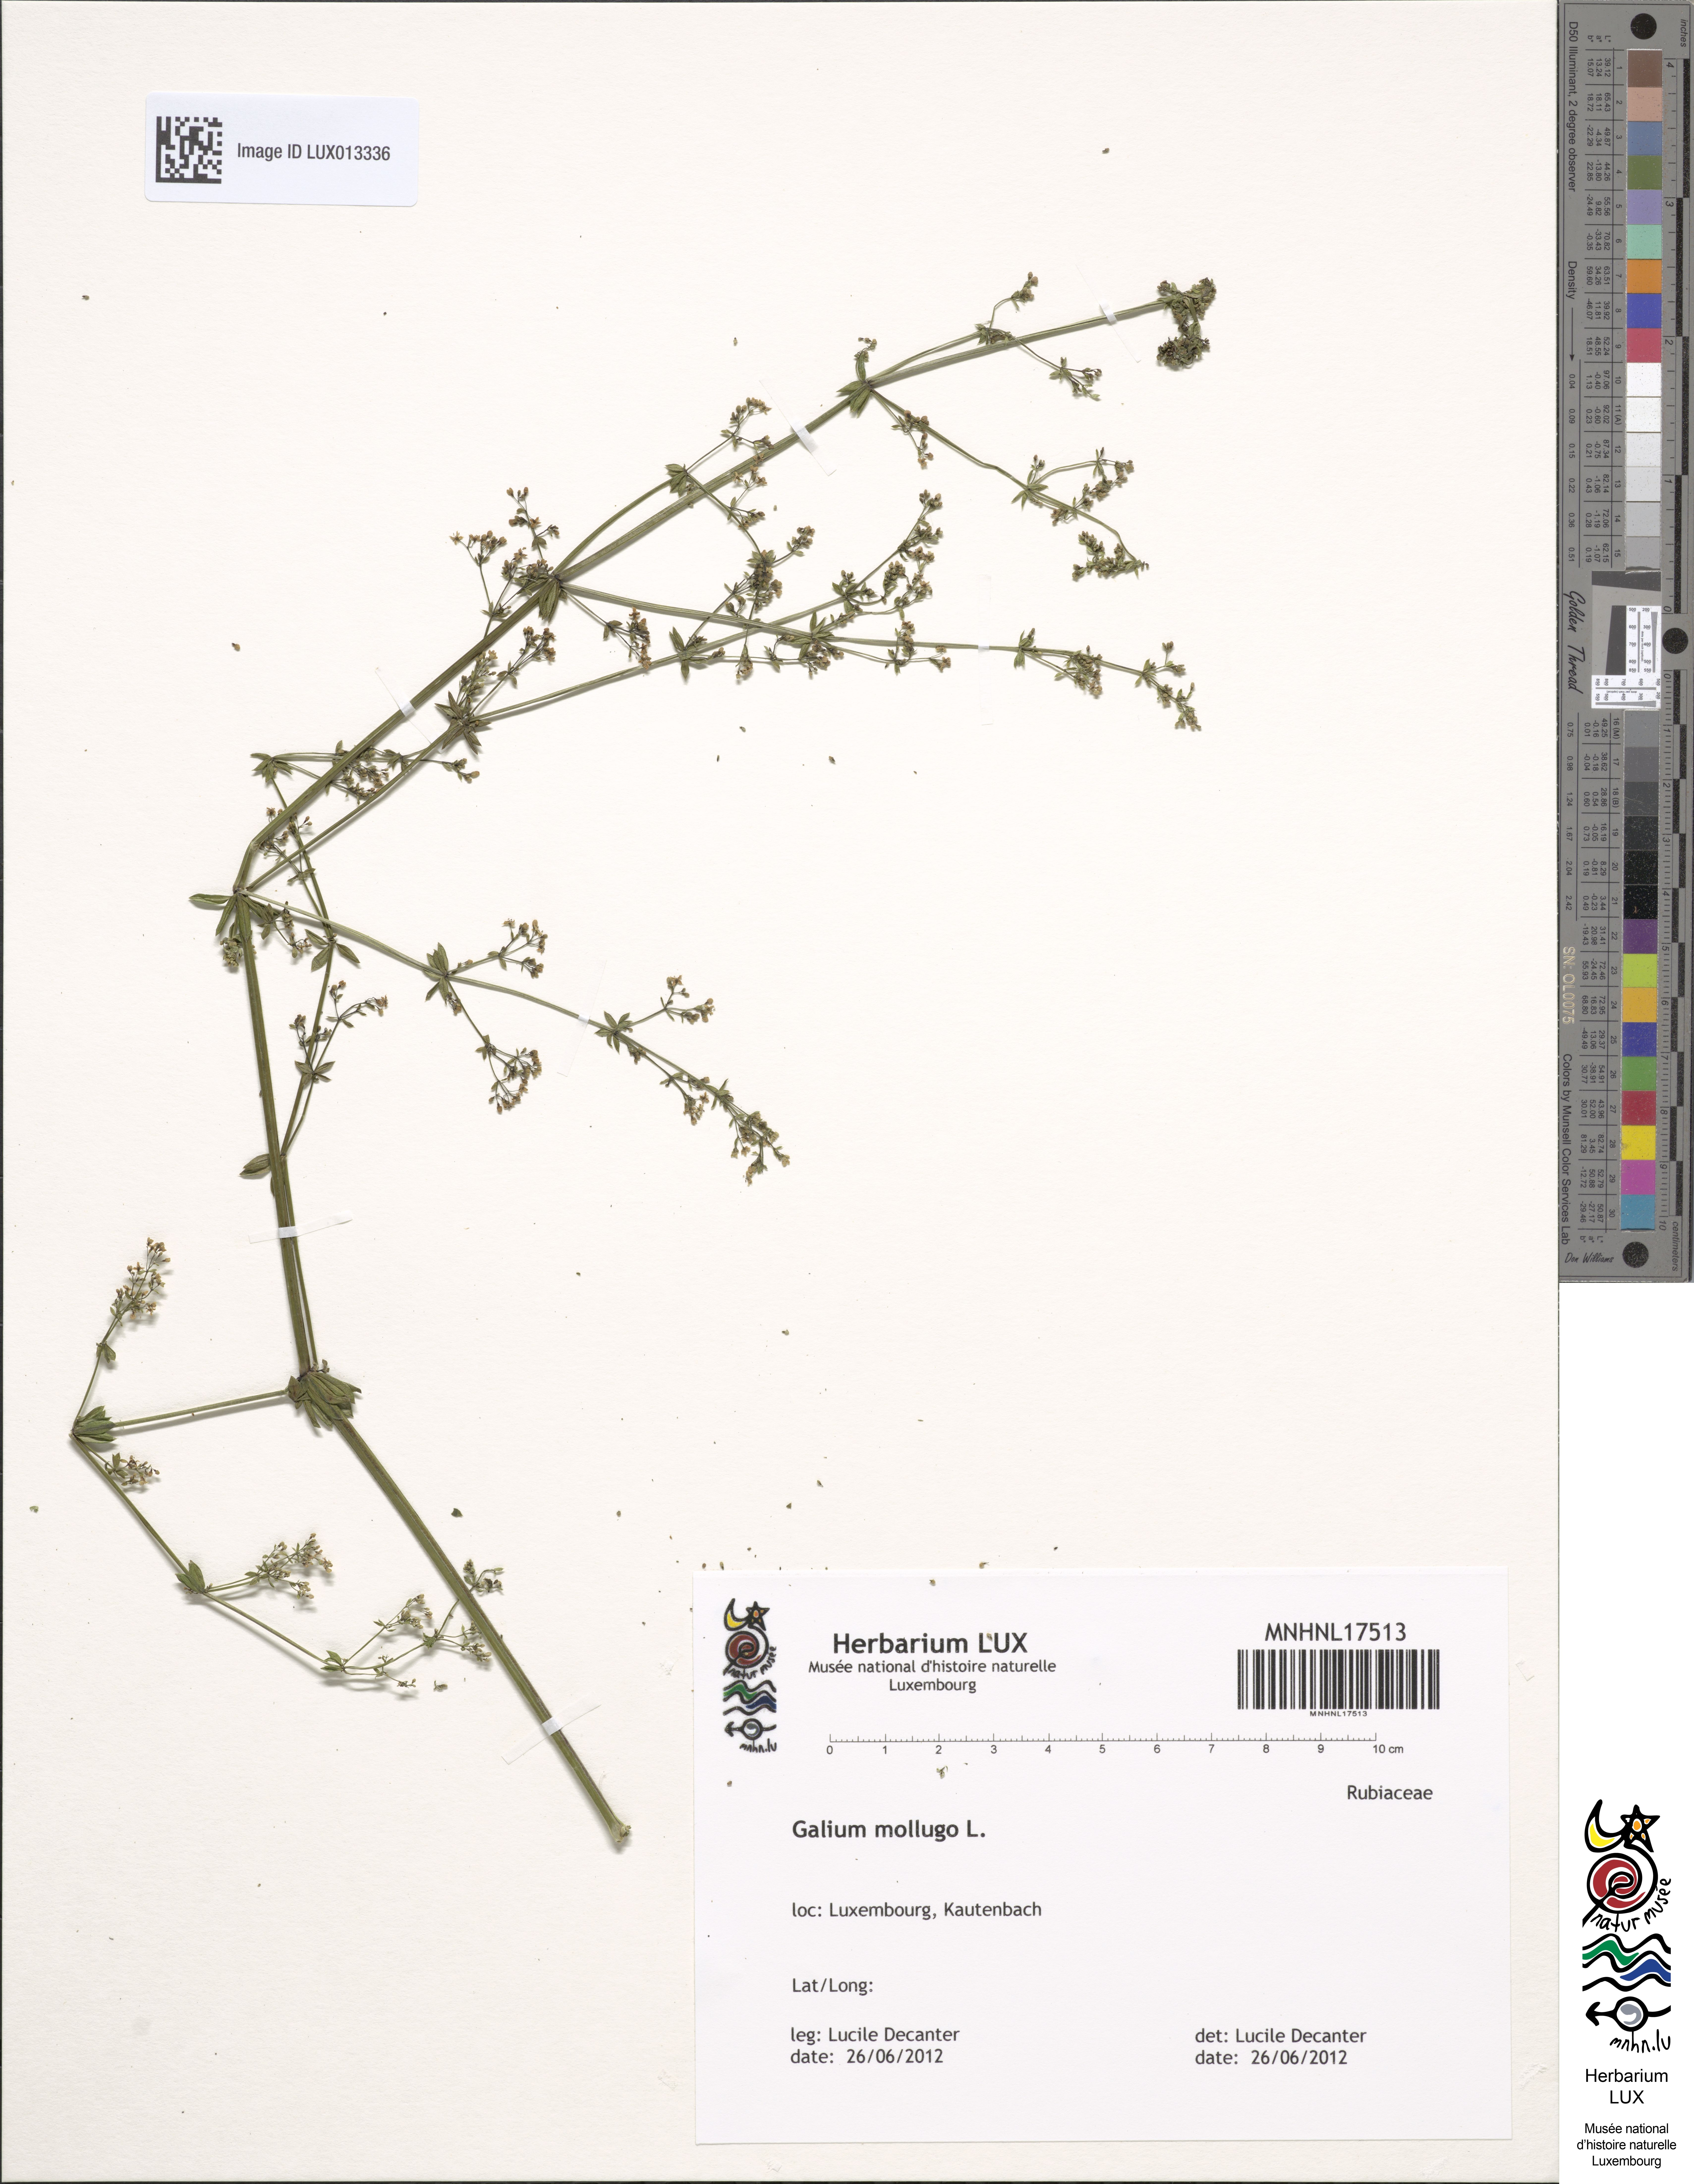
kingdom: Plantae
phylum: Tracheophyta
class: Magnoliopsida
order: Gentianales
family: Rubiaceae
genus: Galium
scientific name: Galium mollugo
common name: Hedge bedstraw
